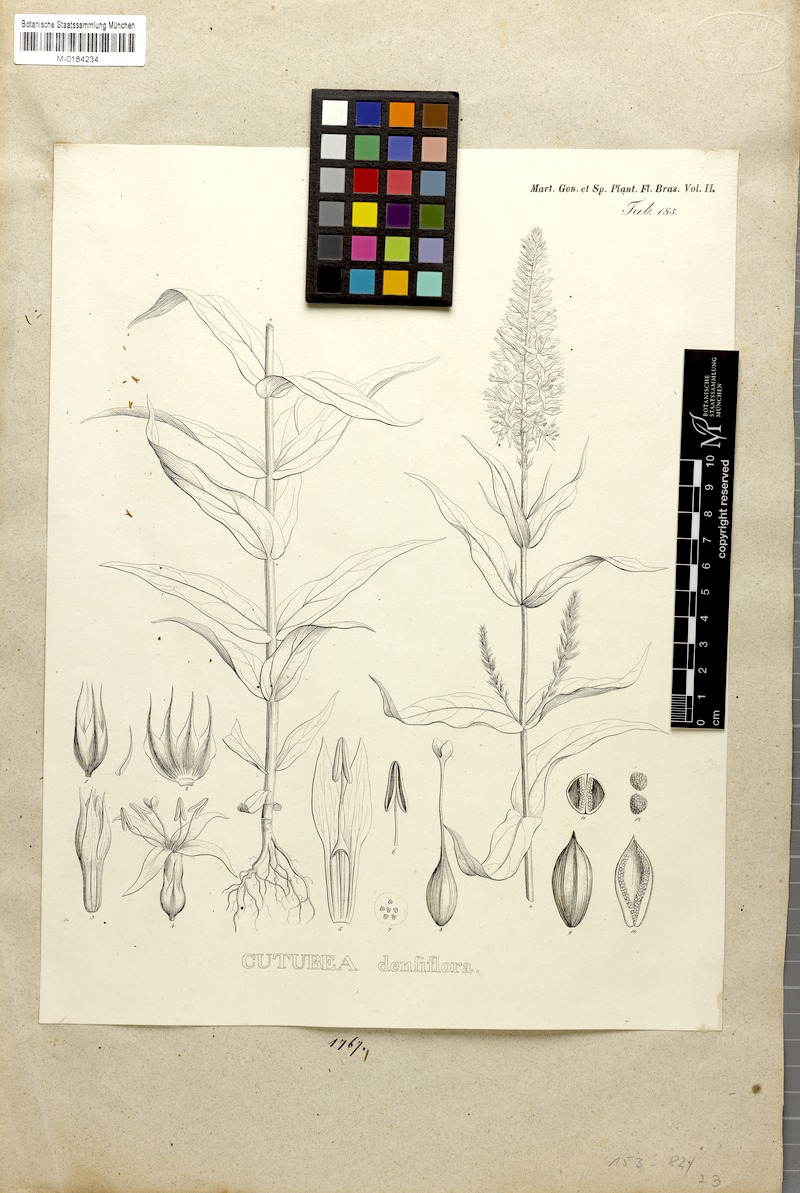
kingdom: Plantae
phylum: Tracheophyta
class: Magnoliopsida
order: Gentianales
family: Gentianaceae
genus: Coutoubea
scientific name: Coutoubea spicata
